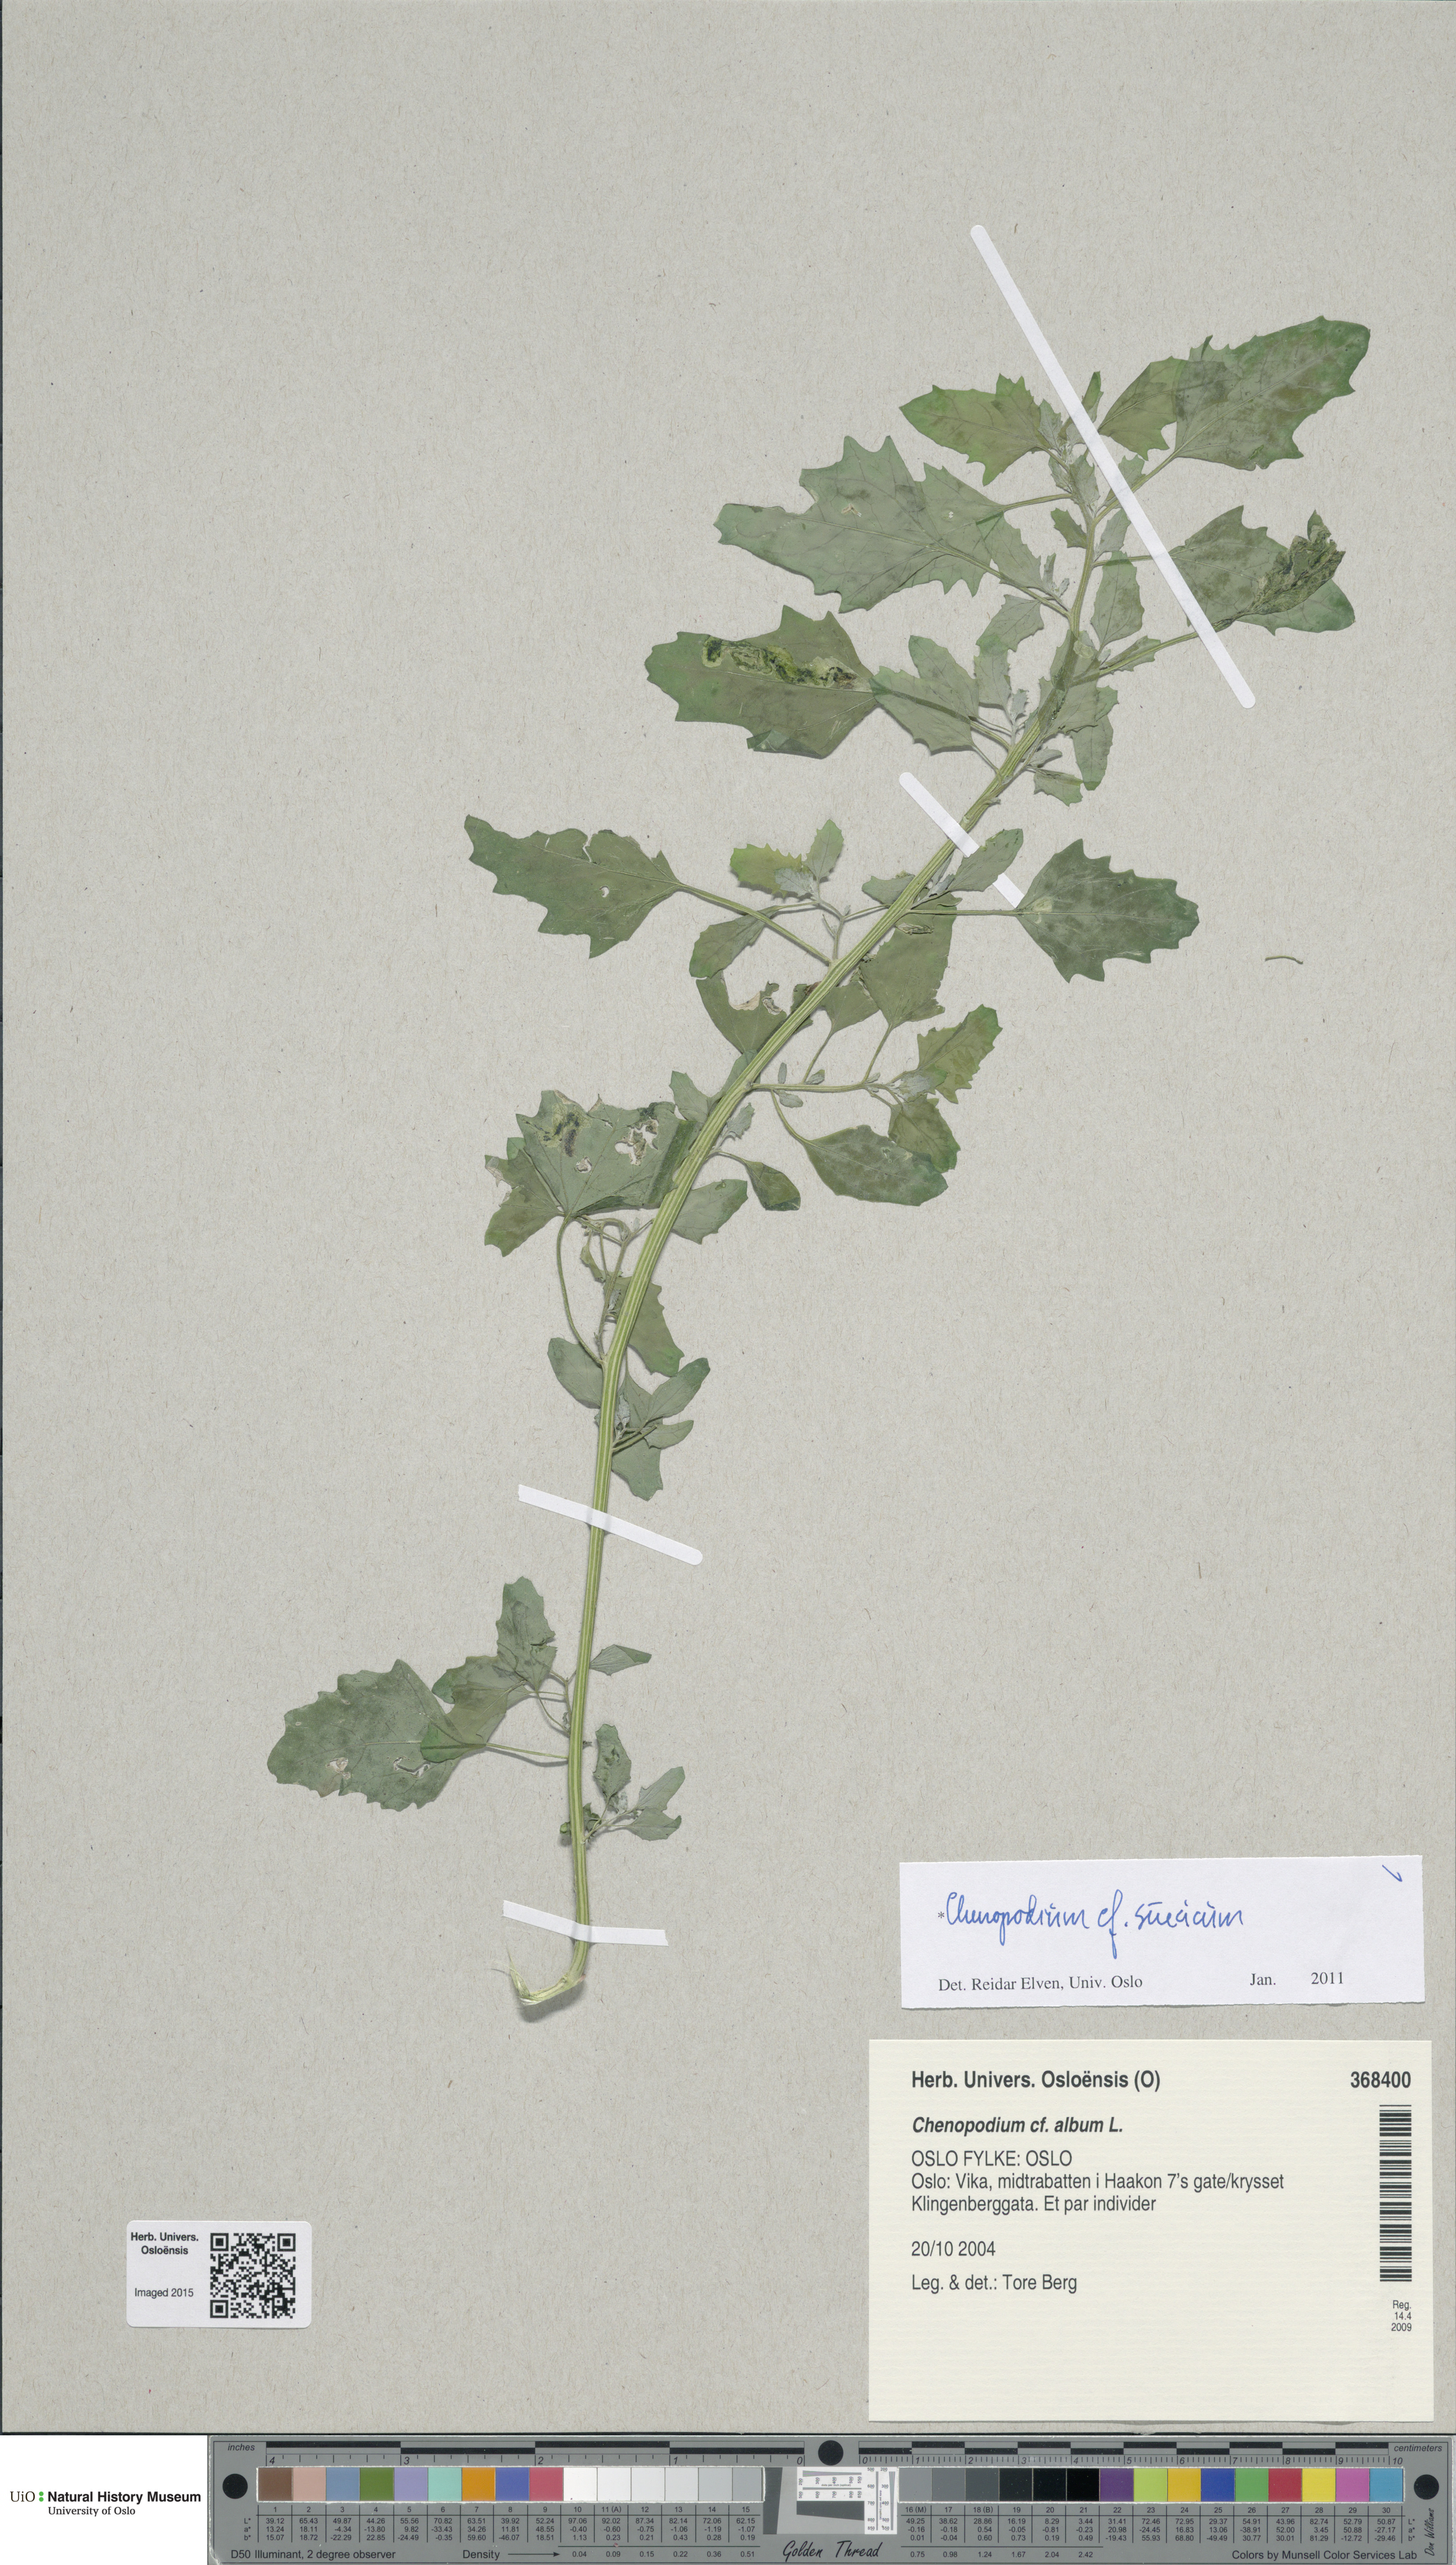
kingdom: Plantae
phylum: Tracheophyta
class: Magnoliopsida
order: Caryophyllales
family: Amaranthaceae
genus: Chenopodium
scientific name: Chenopodium suecicum
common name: Swedish goosefoot
